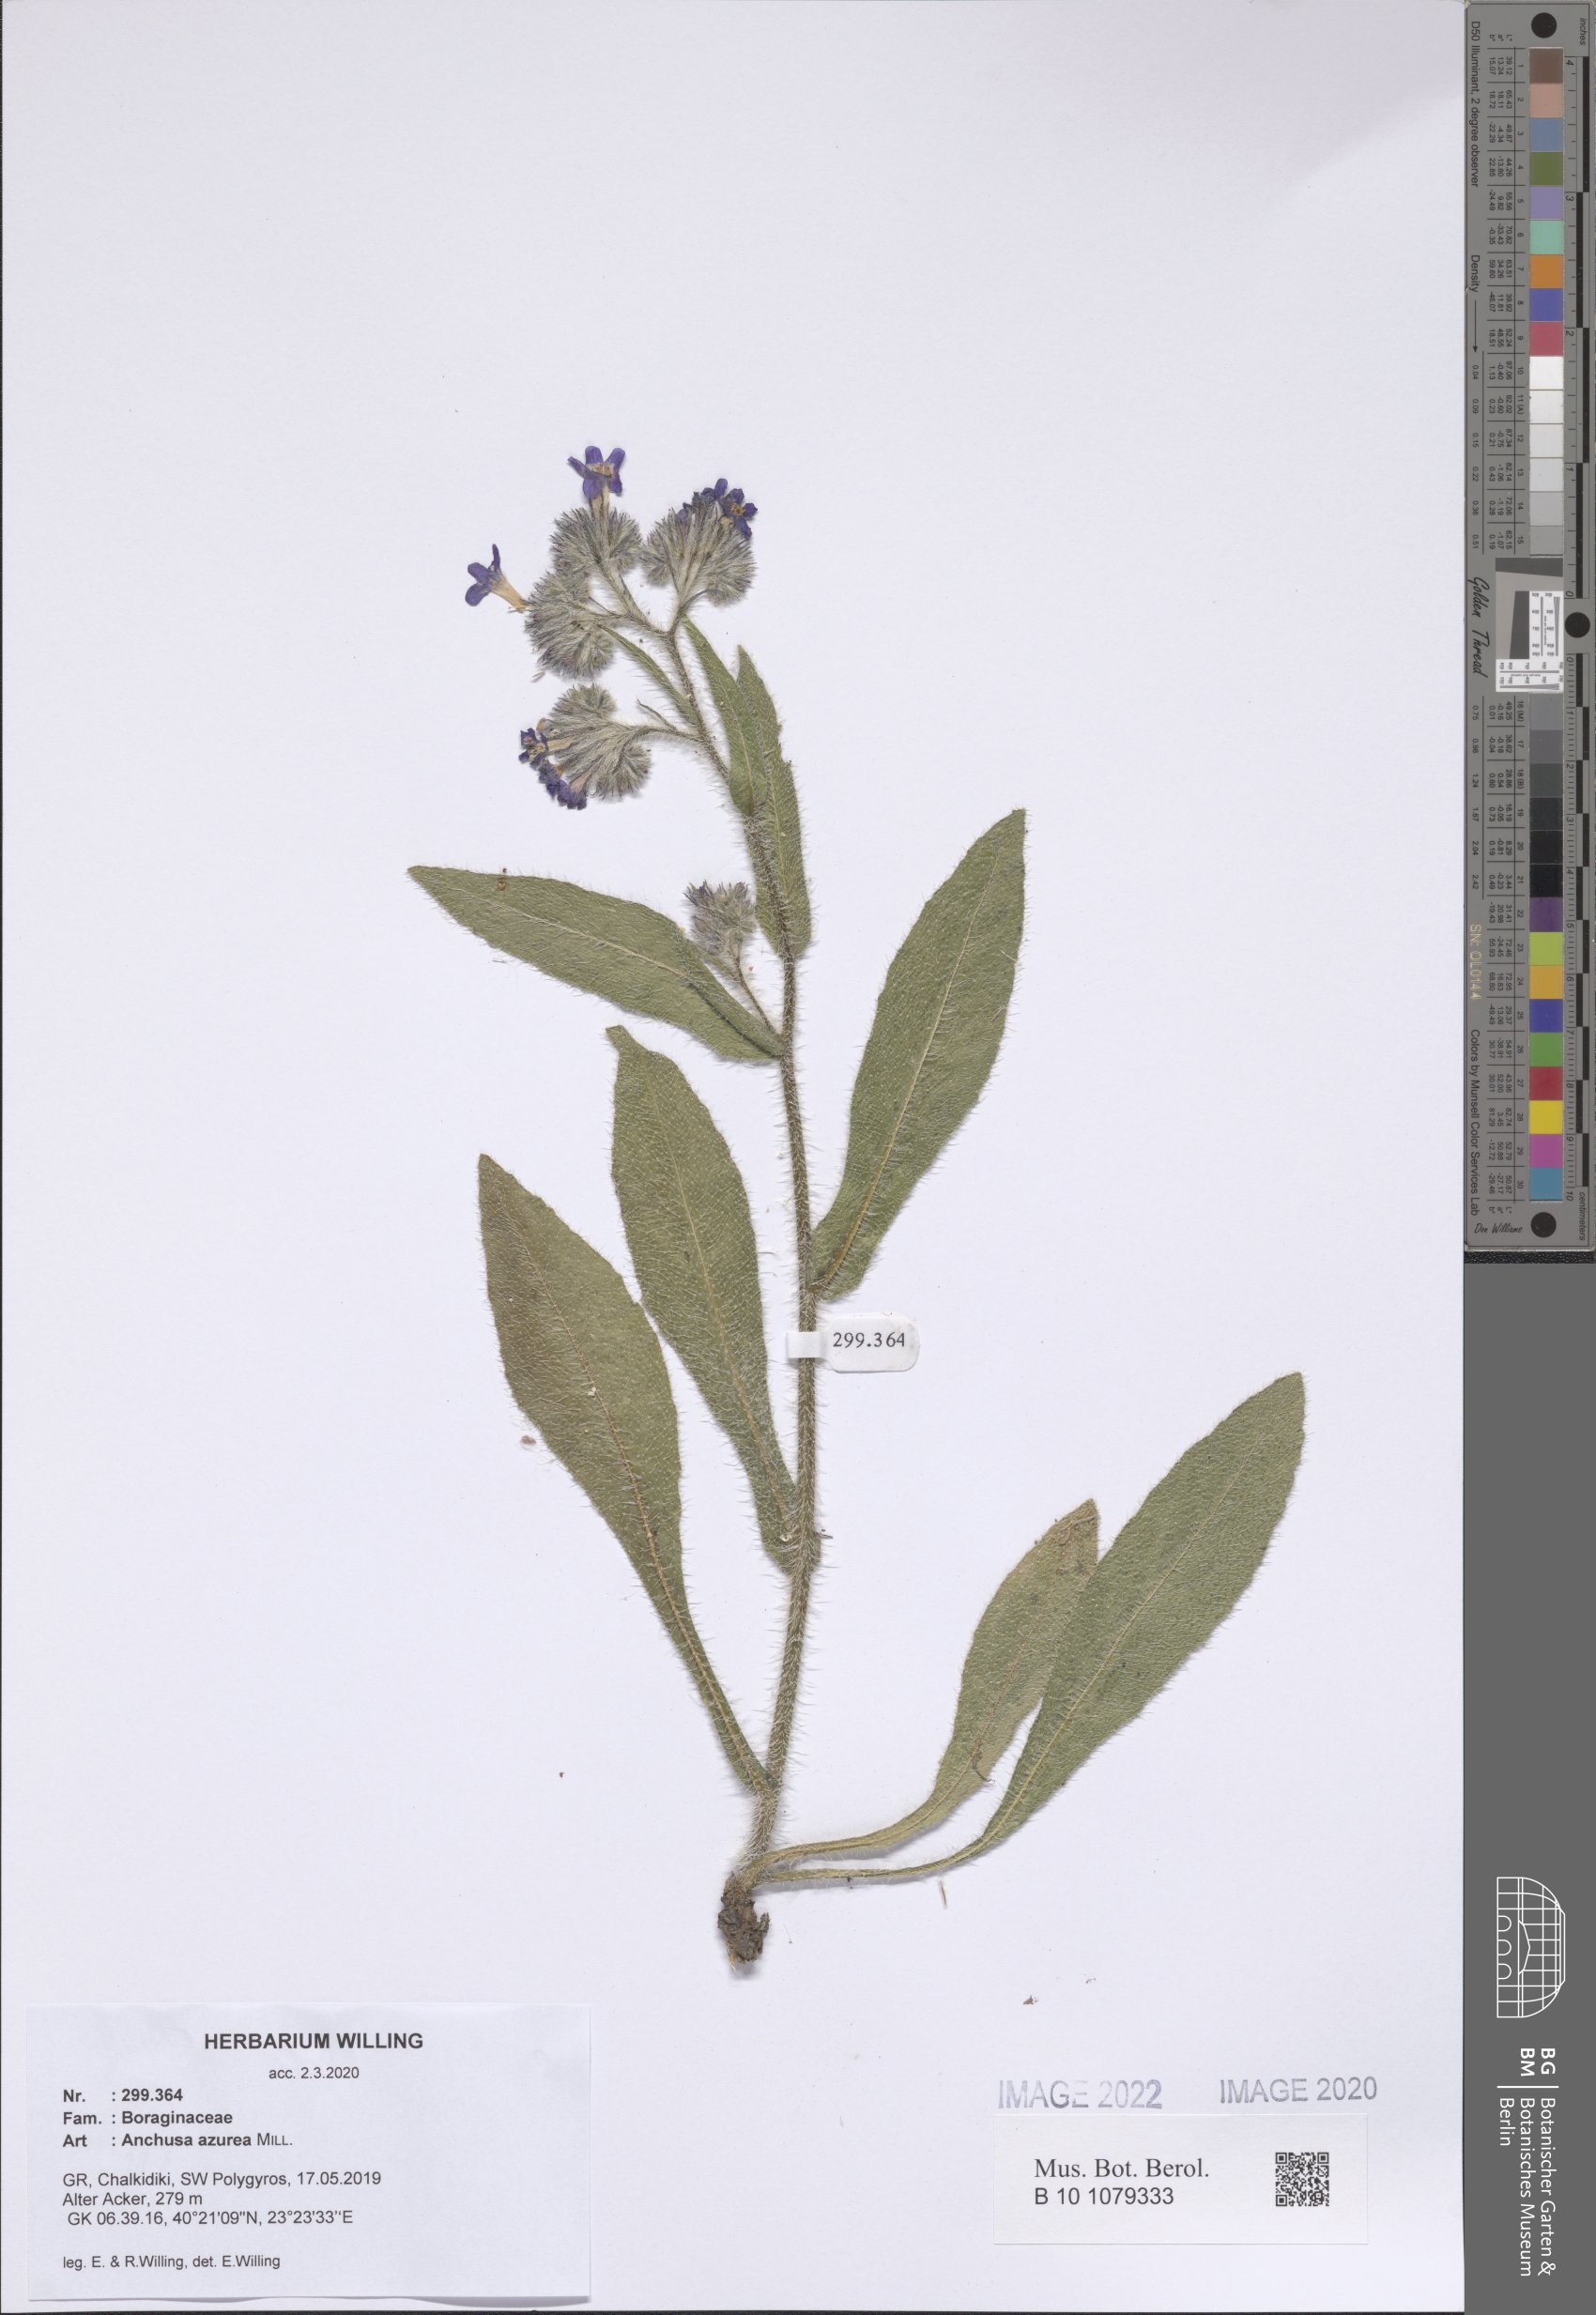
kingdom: Plantae
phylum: Tracheophyta
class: Magnoliopsida
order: Boraginales
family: Boraginaceae
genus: Anchusa
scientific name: Anchusa azurea
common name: Garden anchusa
